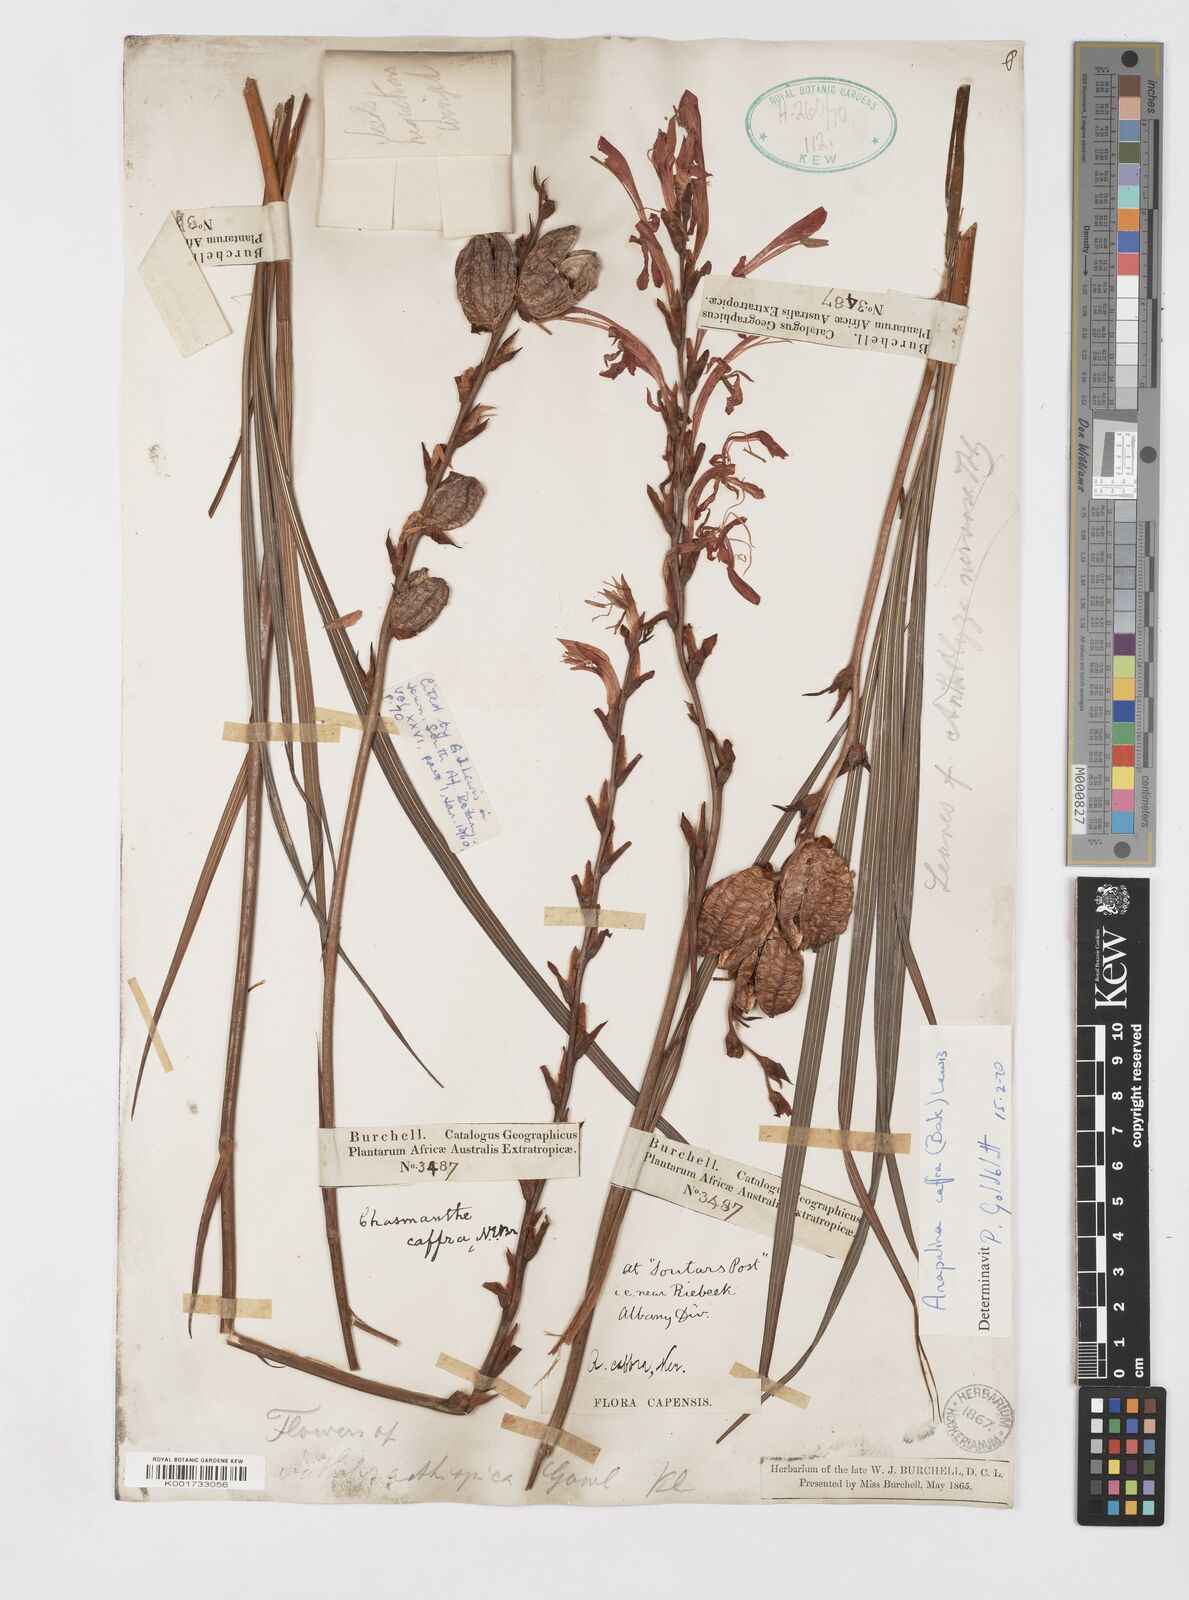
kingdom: Plantae
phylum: Tracheophyta
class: Liliopsida
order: Asparagales
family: Iridaceae
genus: Tritoniopsis
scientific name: Tritoniopsis caffra
